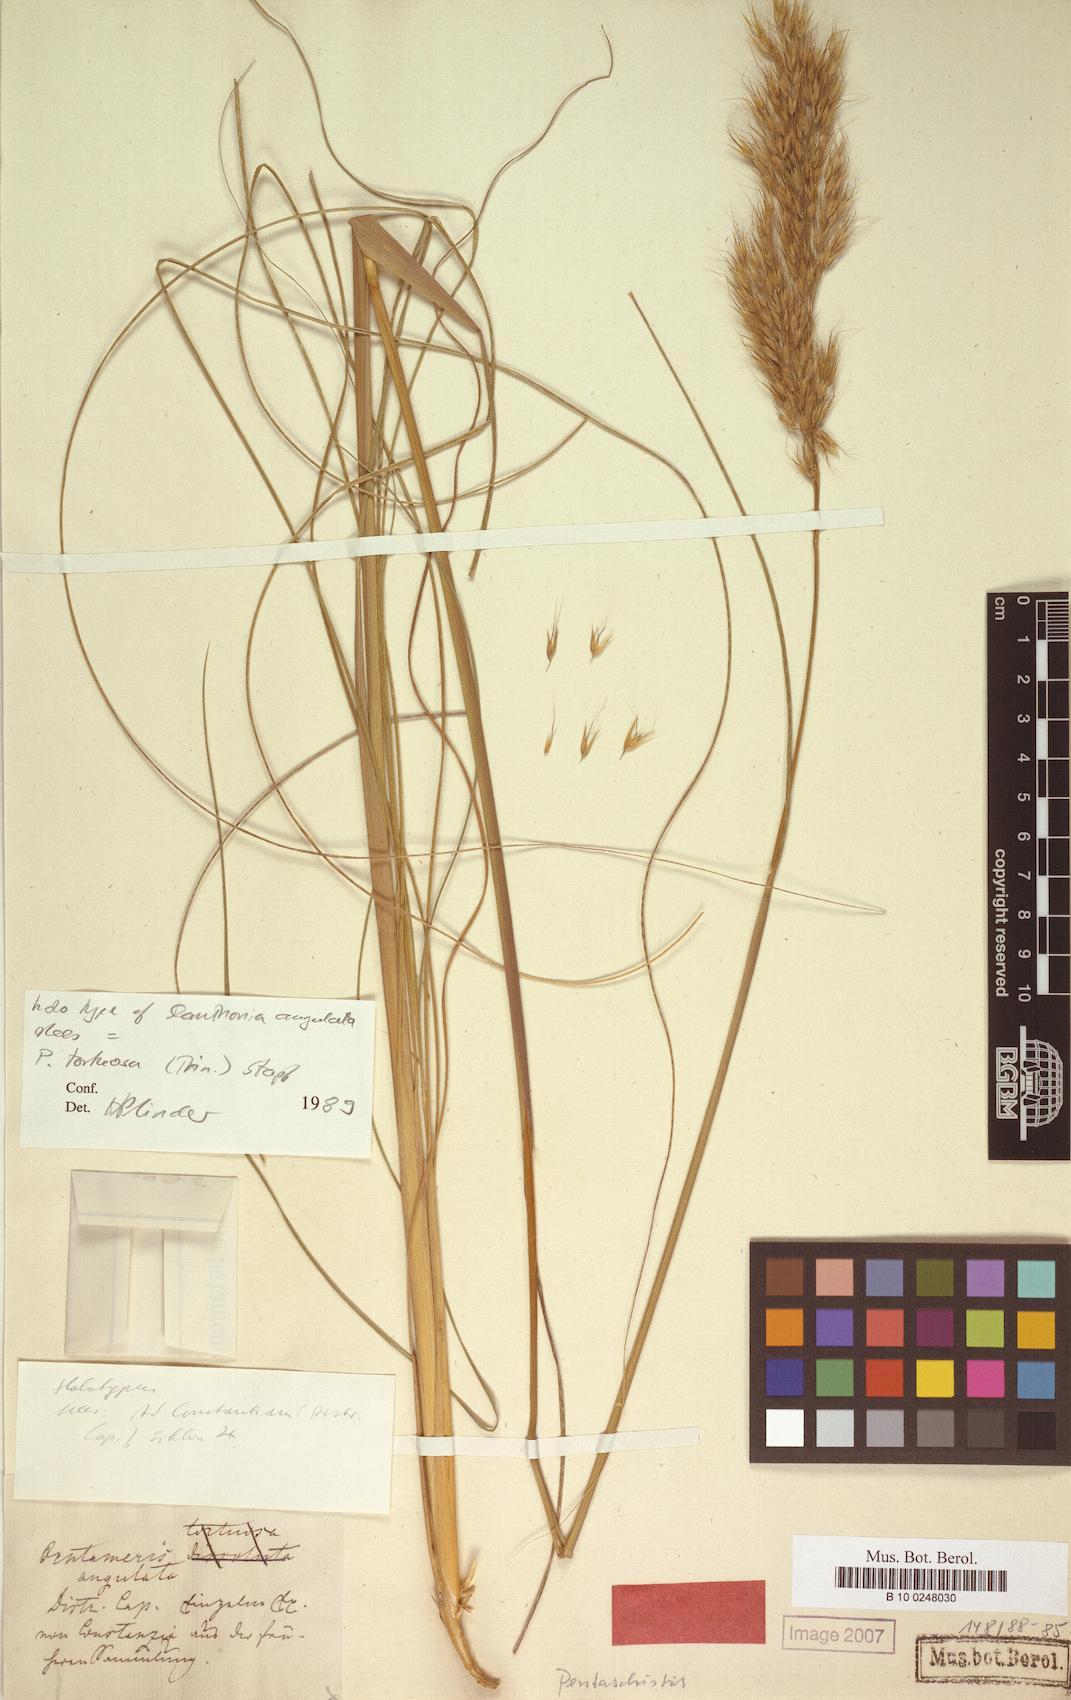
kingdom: Plantae
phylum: Tracheophyta
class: Liliopsida
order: Poales
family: Poaceae
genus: Pentameris
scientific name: Pentameris tortuosa
